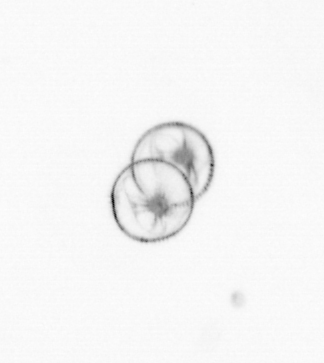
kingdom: Chromista
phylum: Myzozoa
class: Dinophyceae
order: Noctilucales
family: Noctilucaceae
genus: Noctiluca
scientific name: Noctiluca scintillans
